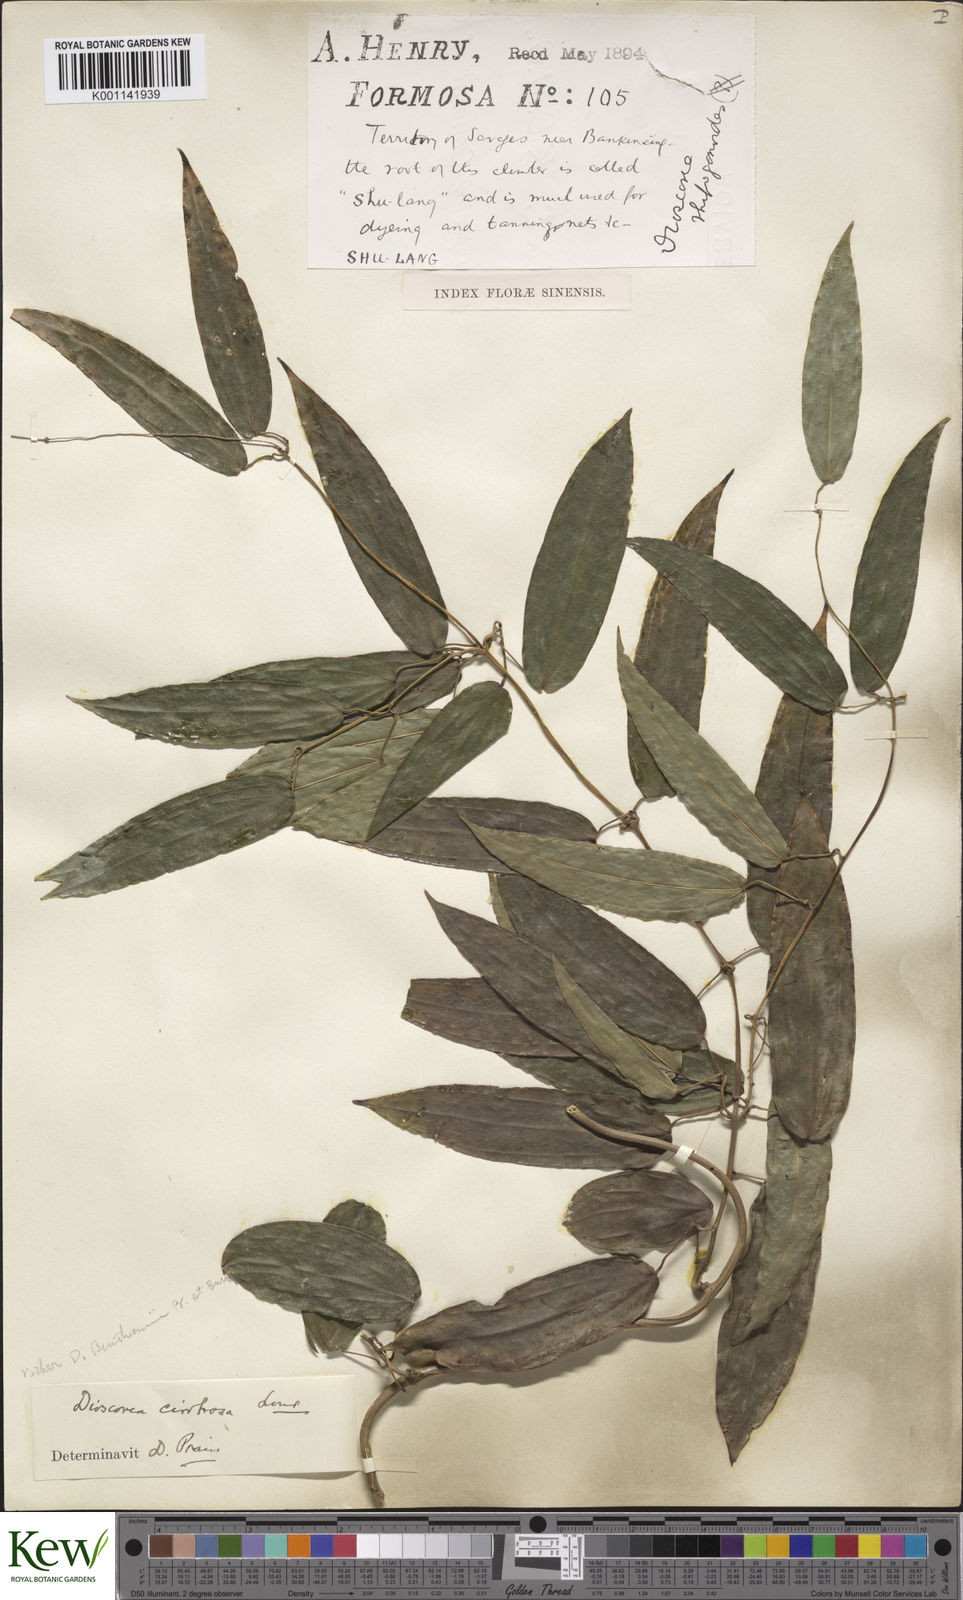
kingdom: Plantae
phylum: Tracheophyta
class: Liliopsida
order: Dioscoreales
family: Dioscoreaceae
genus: Dioscorea
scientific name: Dioscorea cirrhosa
